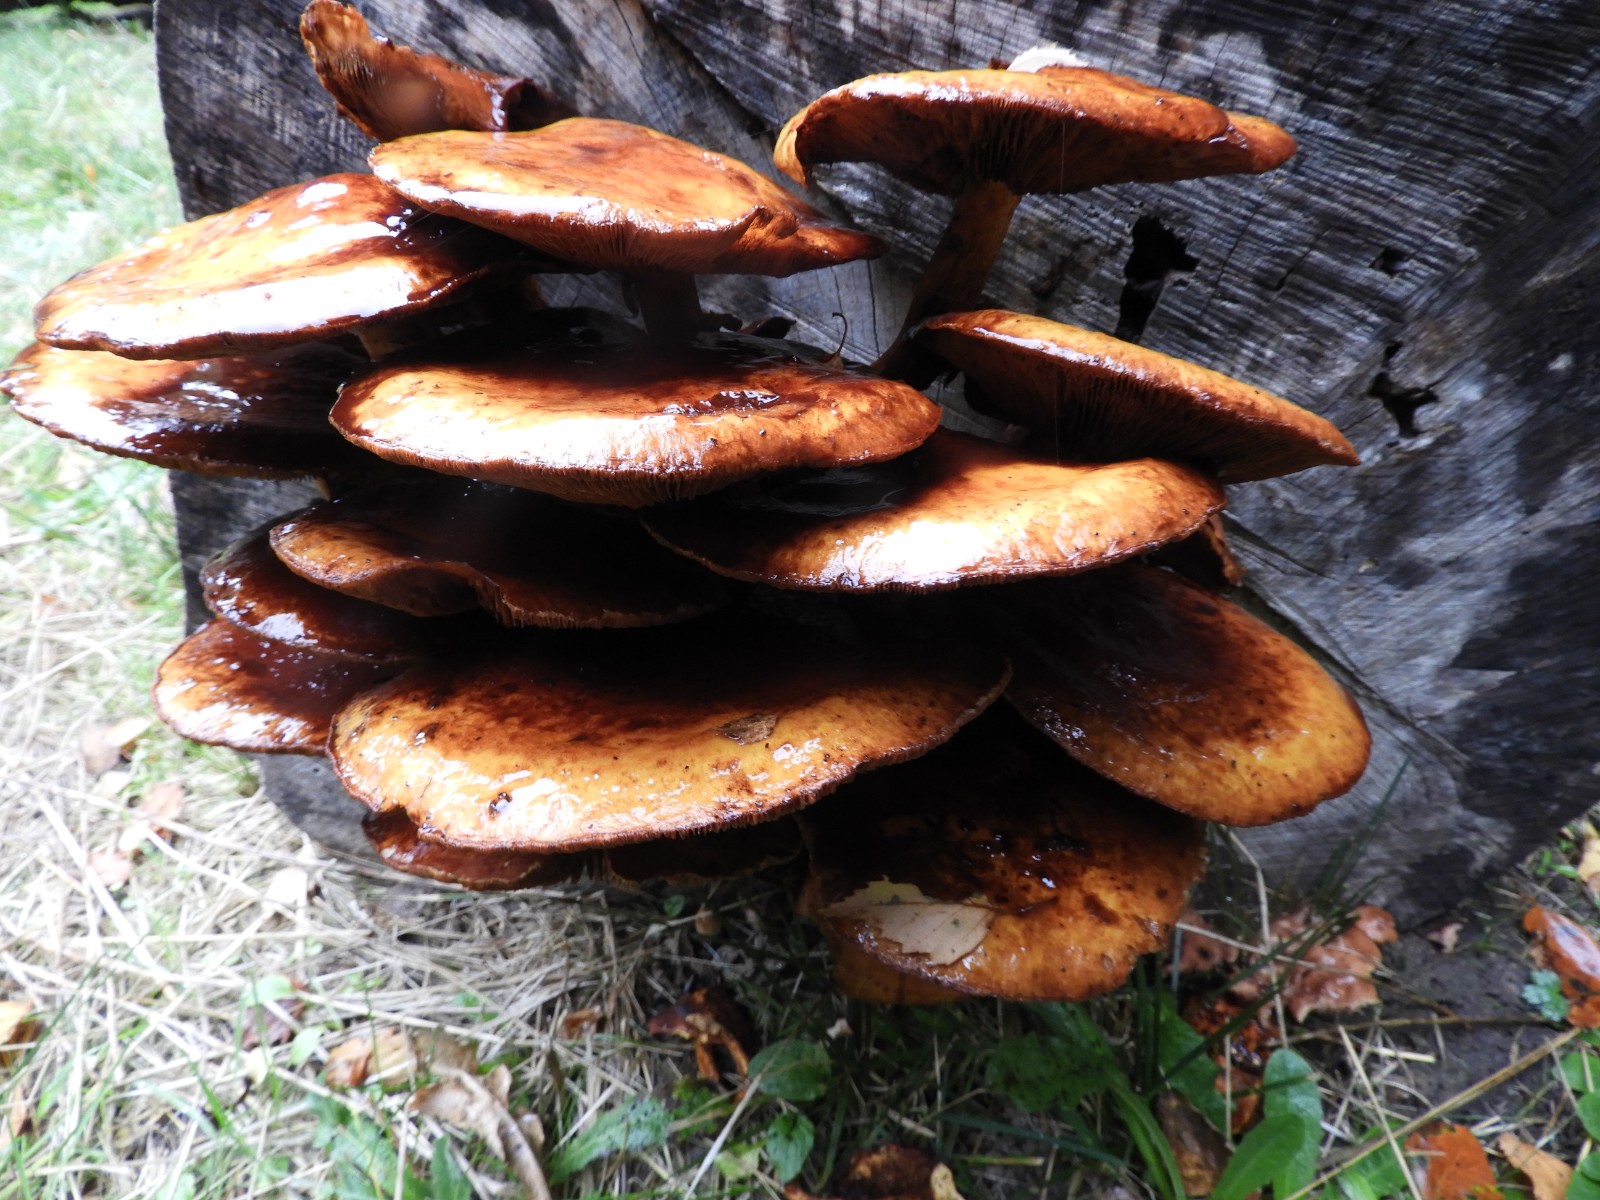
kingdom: Fungi
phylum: Basidiomycota
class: Agaricomycetes
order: Agaricales
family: Strophariaceae
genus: Pholiota
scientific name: Pholiota adiposa
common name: højtsiddende skælhat
